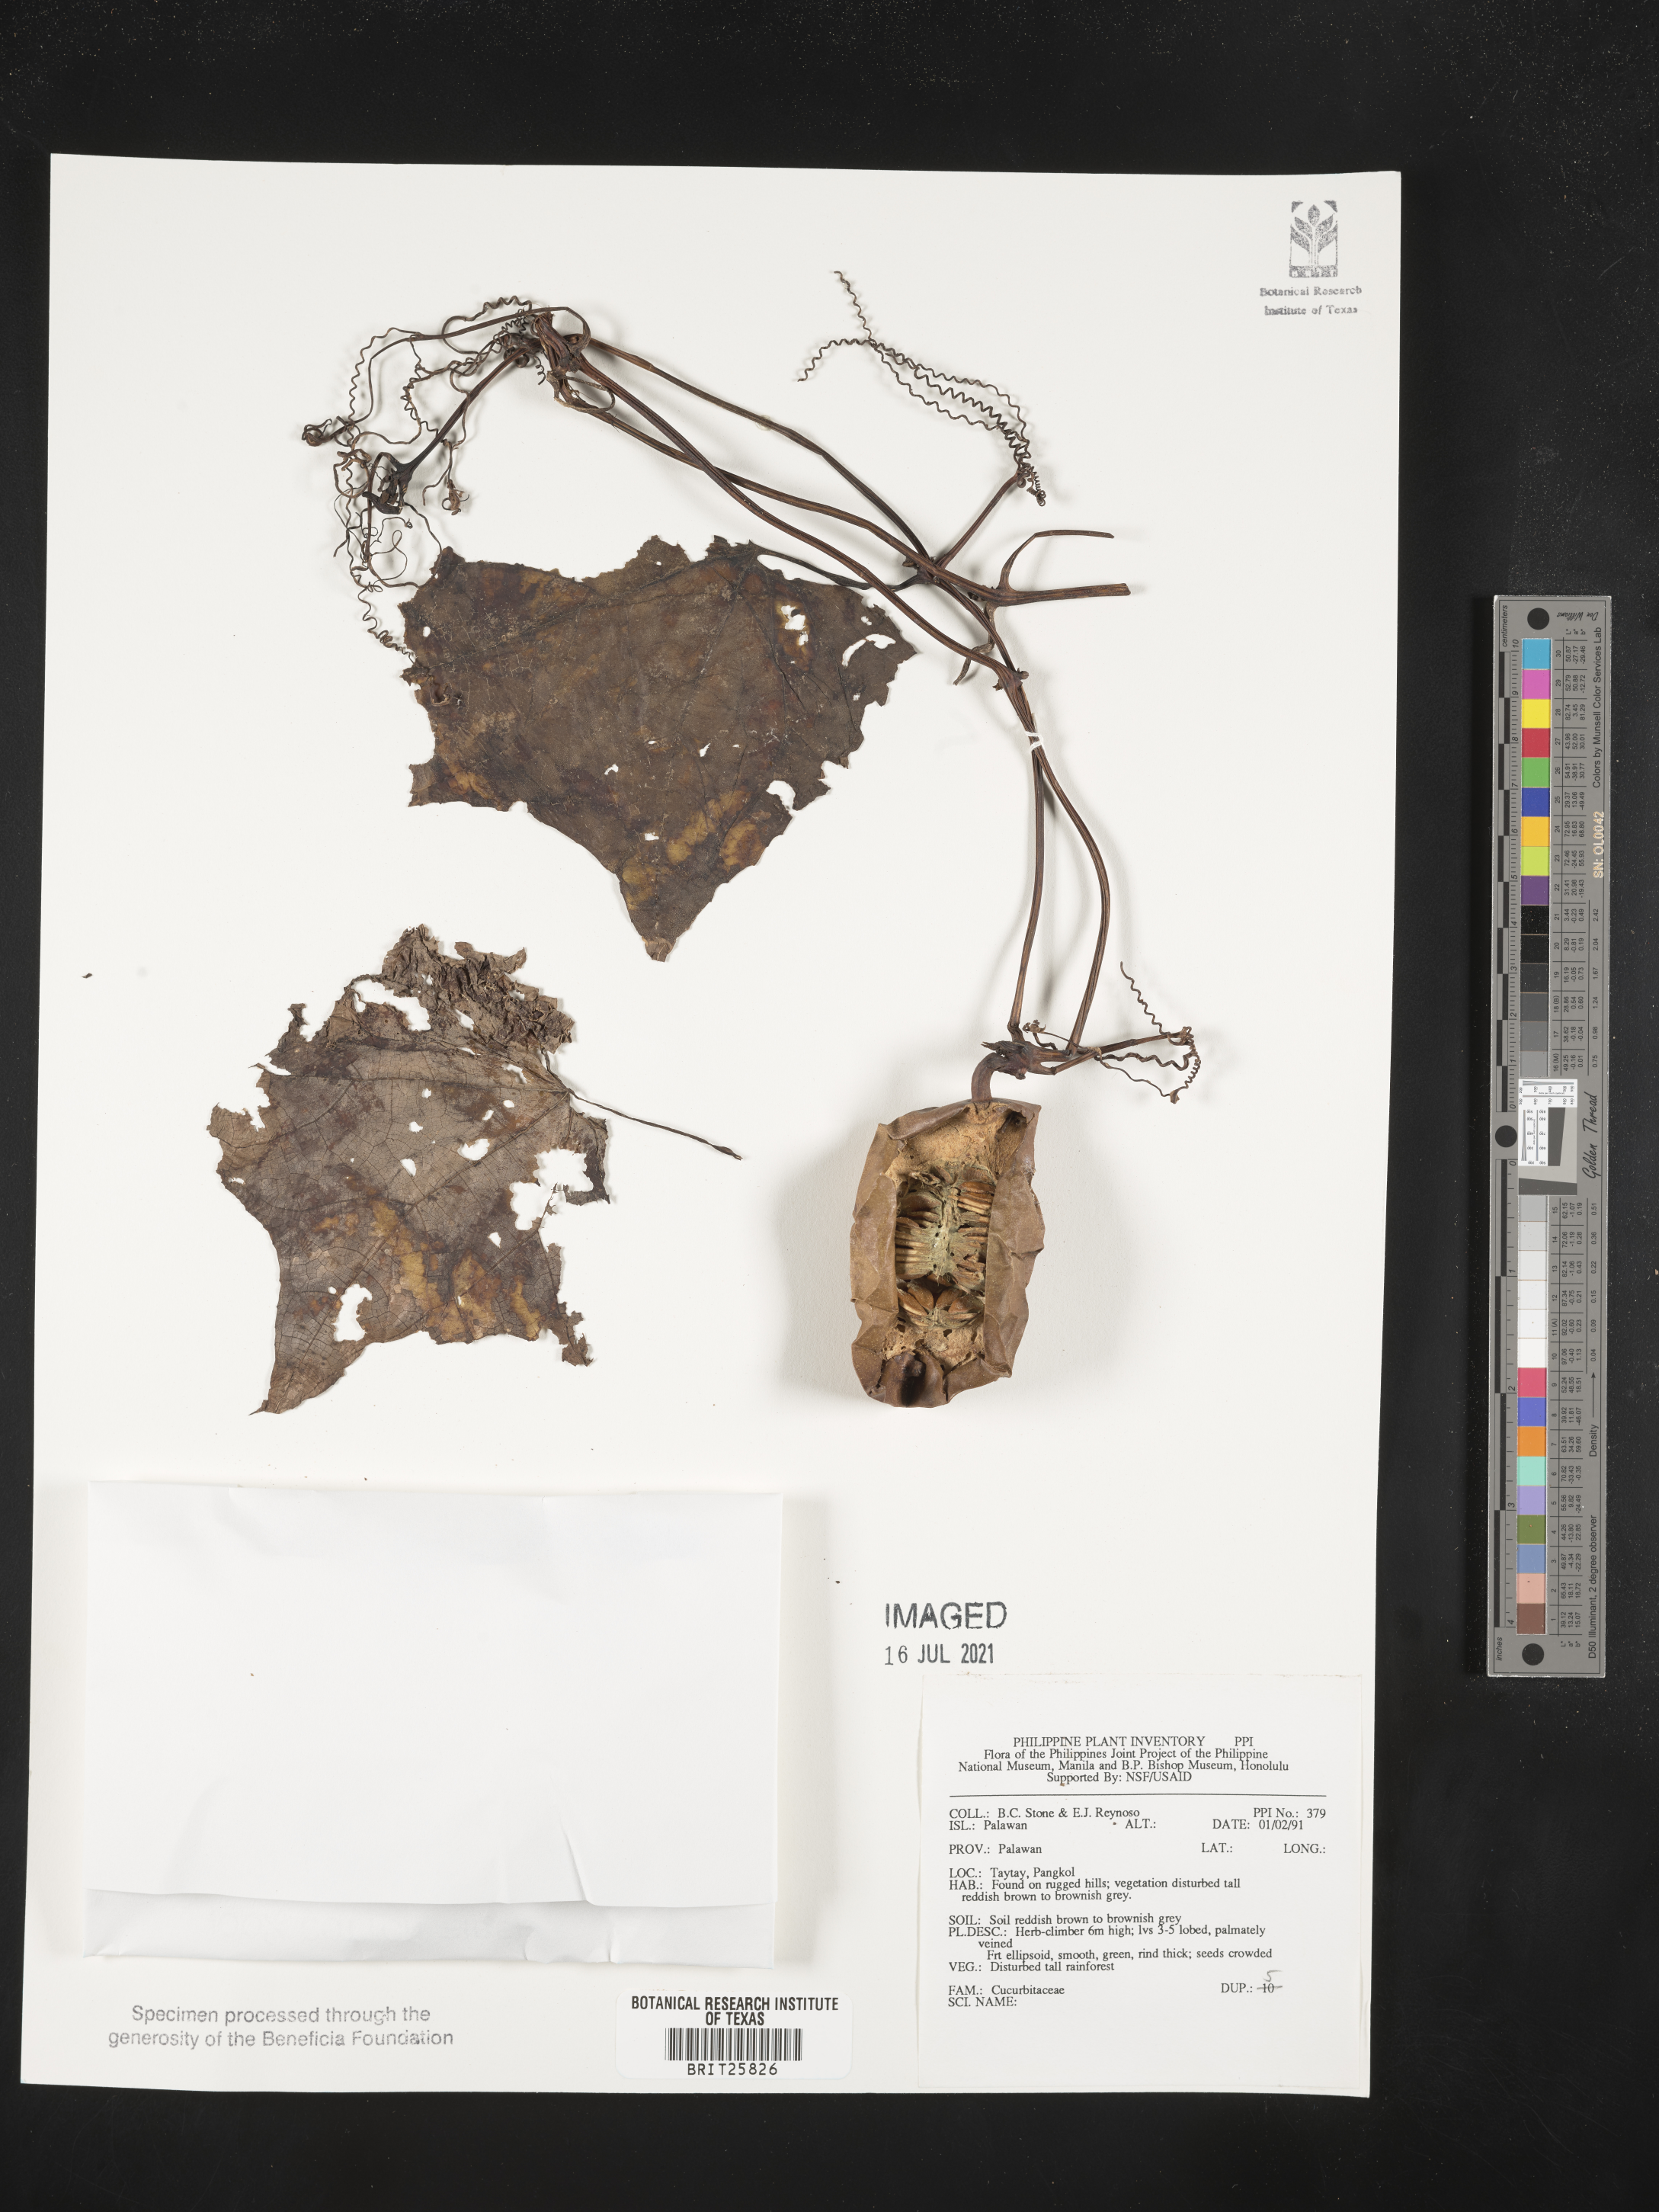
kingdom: Plantae
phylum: Tracheophyta
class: Magnoliopsida
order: Cucurbitales
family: Cucurbitaceae
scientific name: Cucurbitaceae
